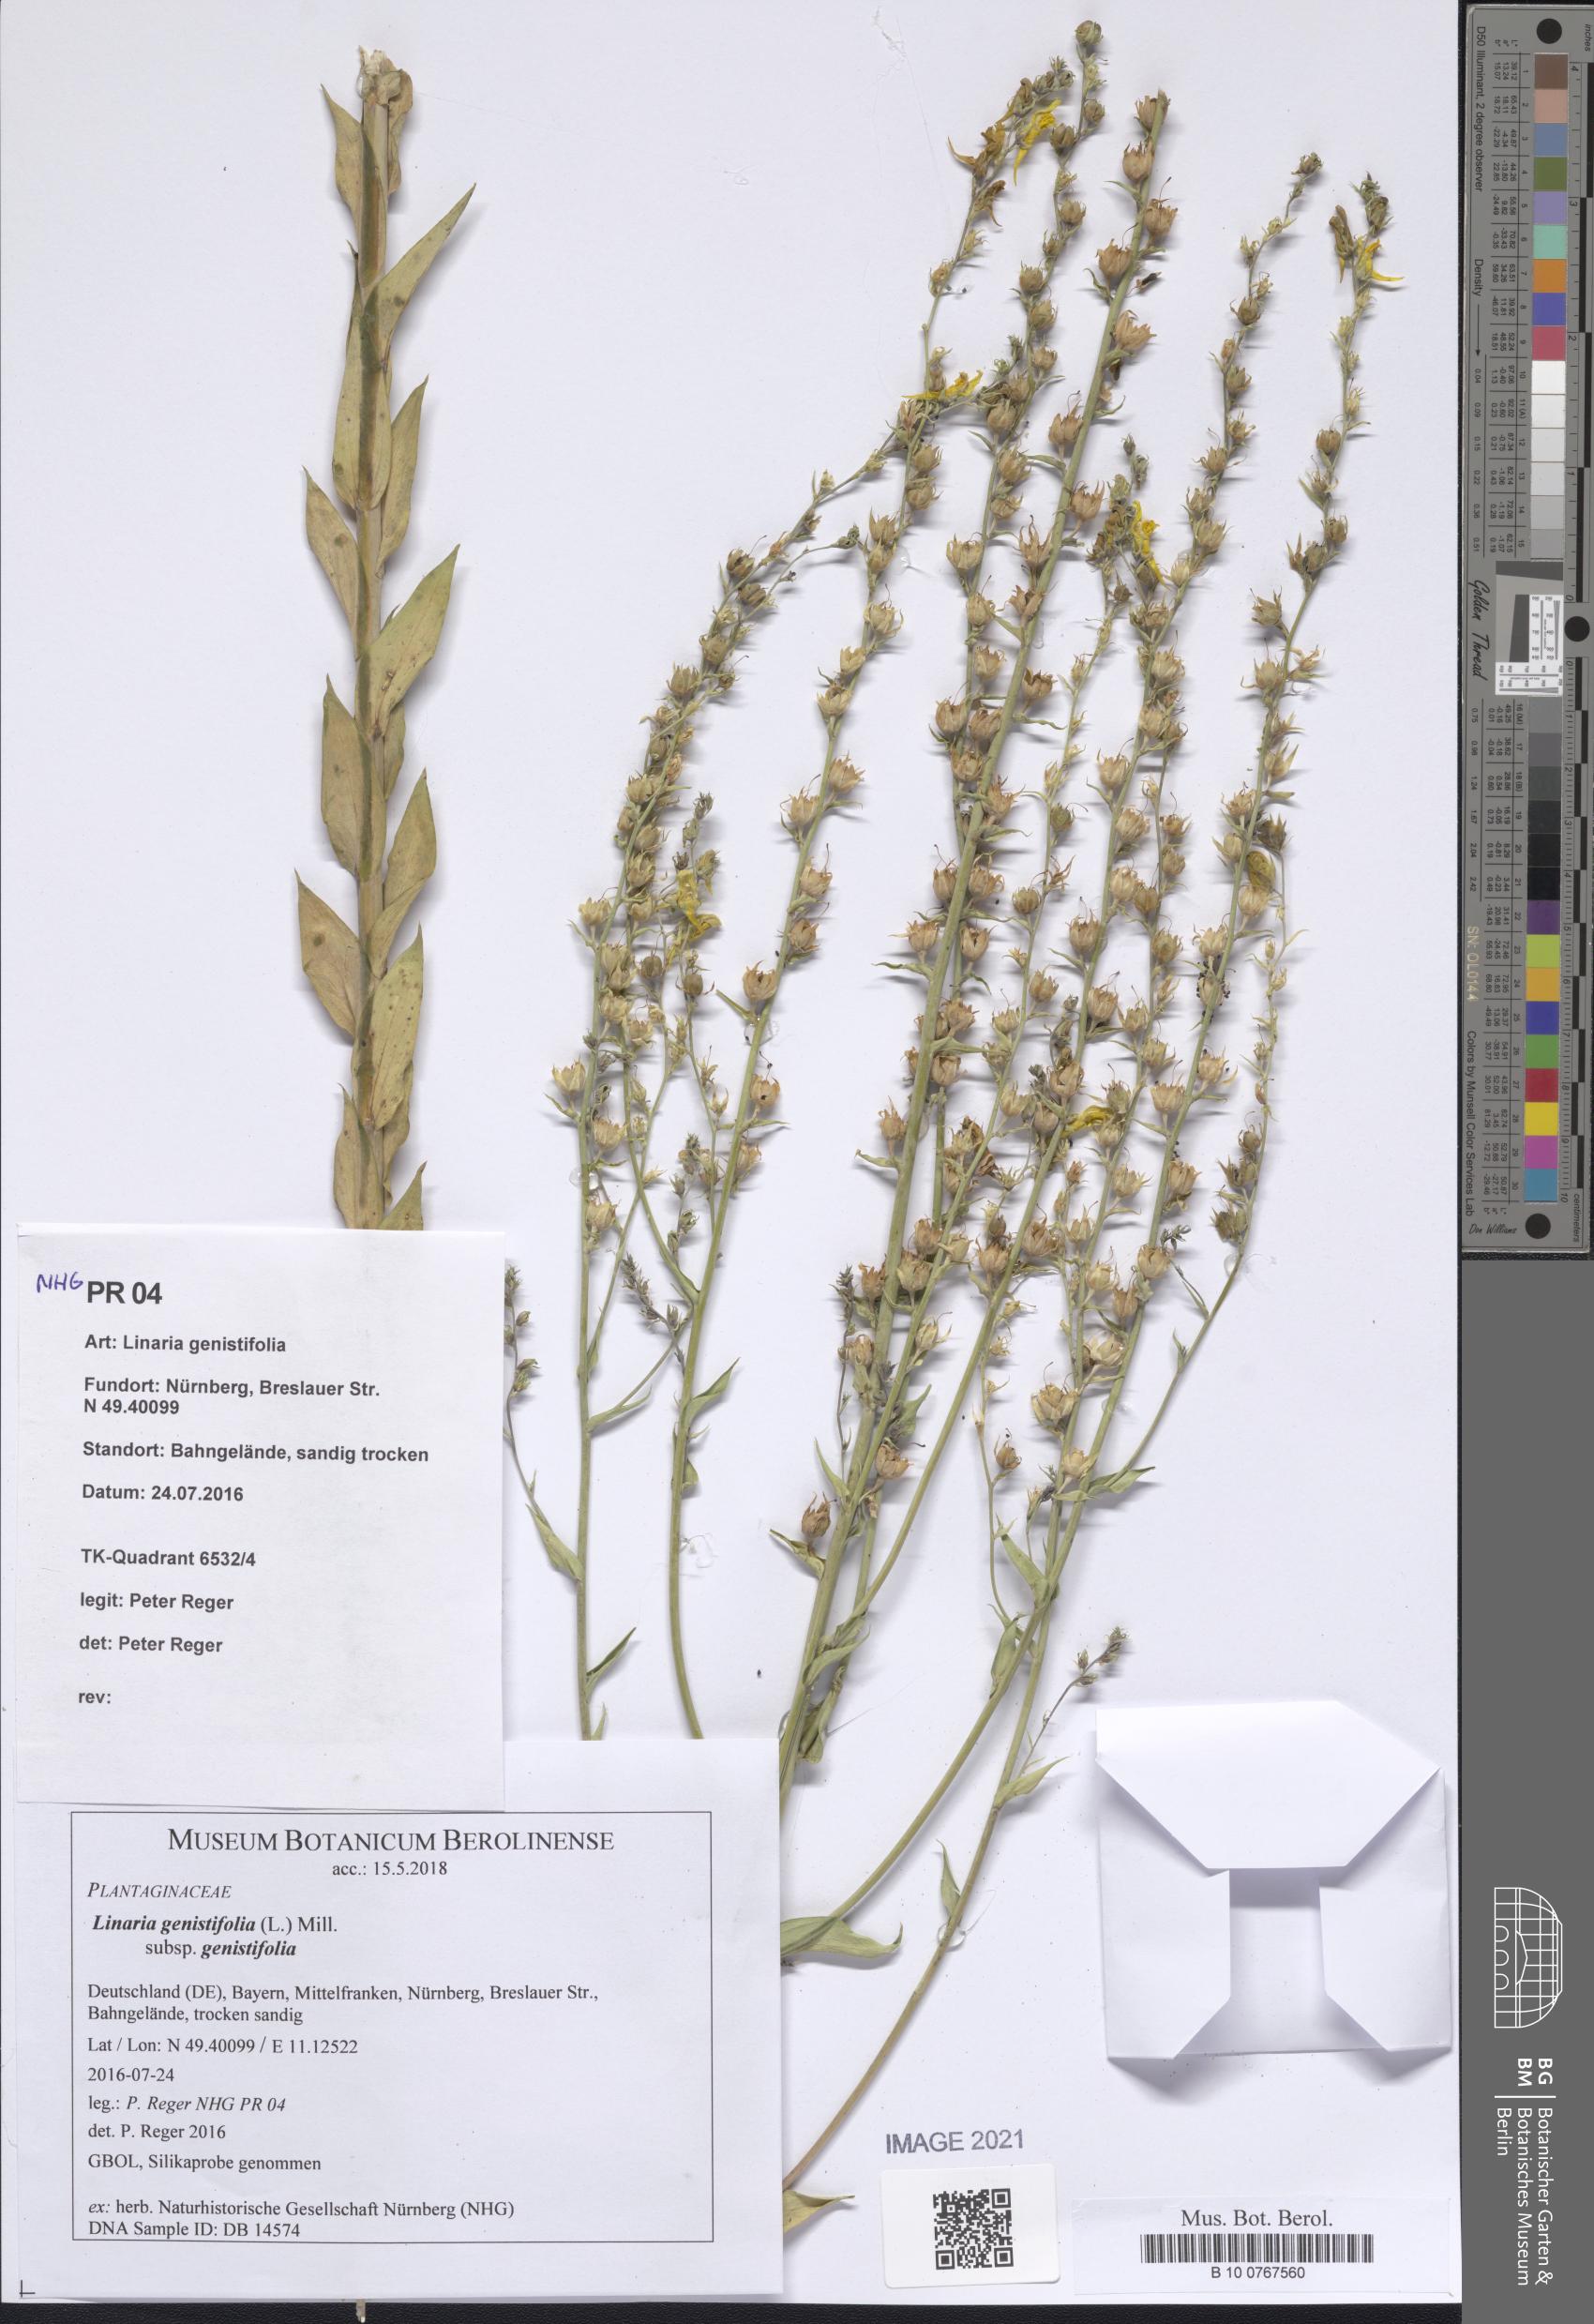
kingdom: Plantae
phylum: Tracheophyta
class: Magnoliopsida
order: Lamiales
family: Plantaginaceae
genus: Linaria
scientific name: Linaria genistifolia
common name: Broomleaf toadflax
